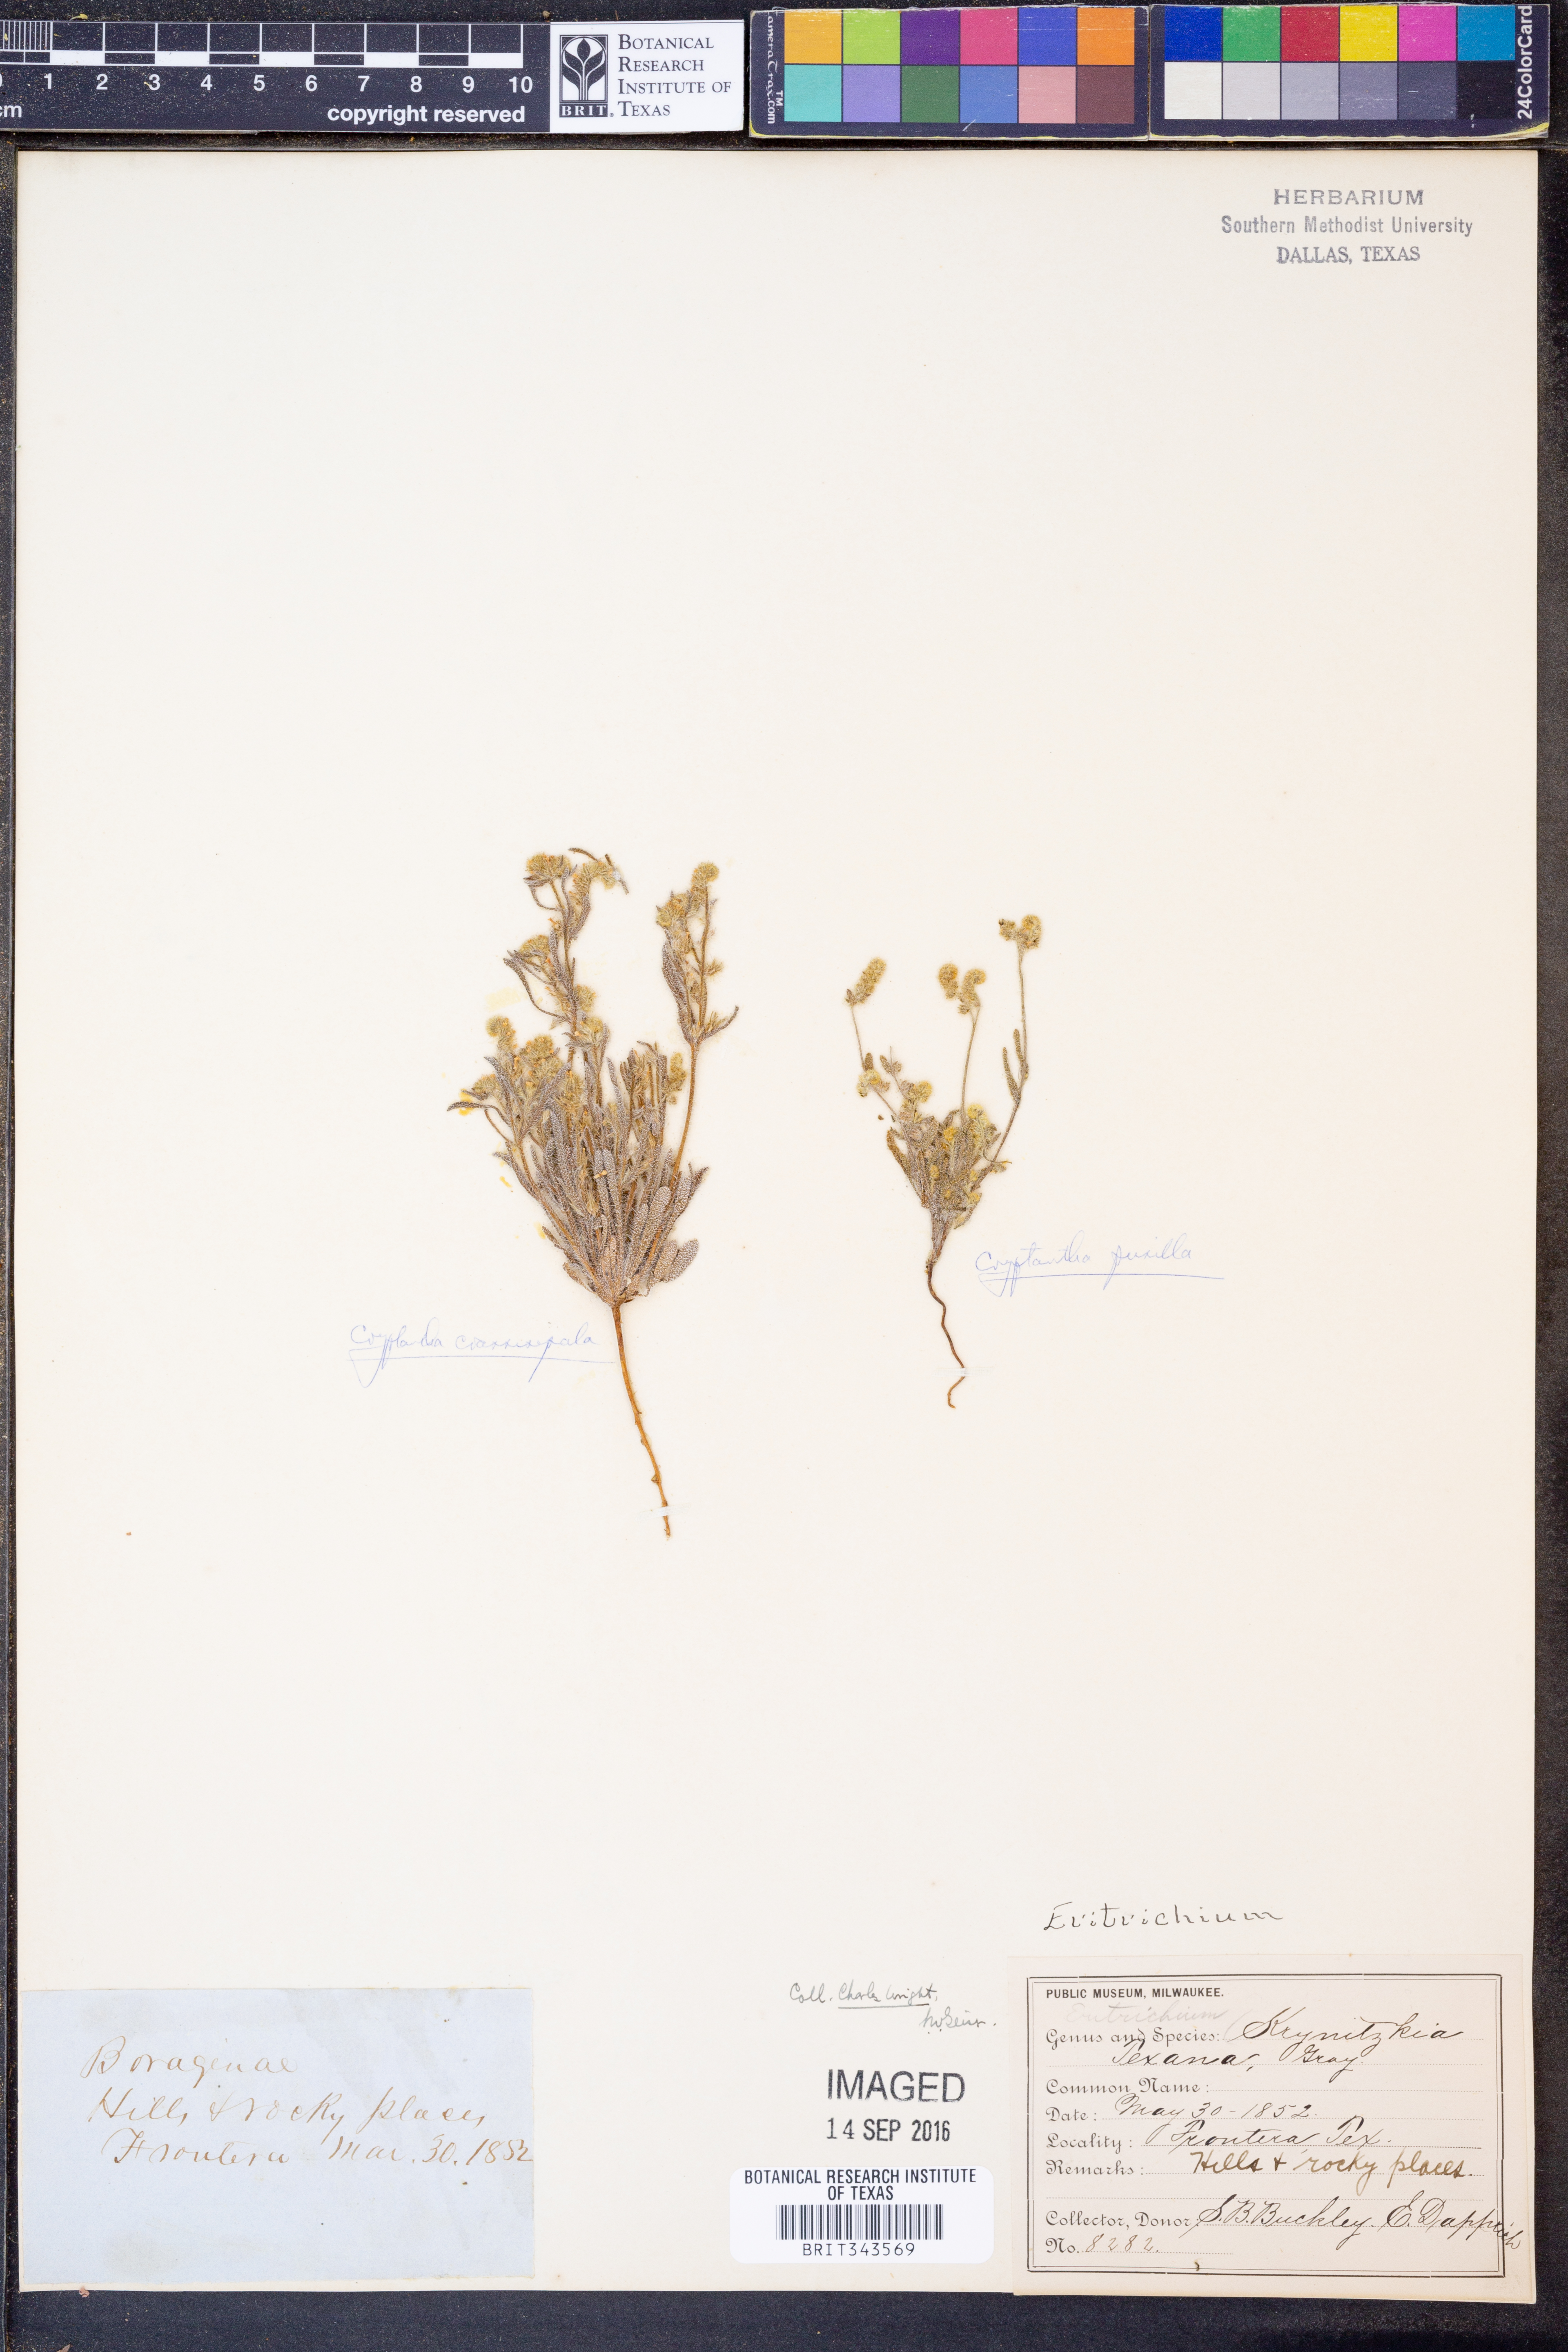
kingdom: Plantae
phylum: Tracheophyta
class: Magnoliopsida
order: Boraginales
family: Boraginaceae
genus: Johnstonella
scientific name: Johnstonella pusilla
